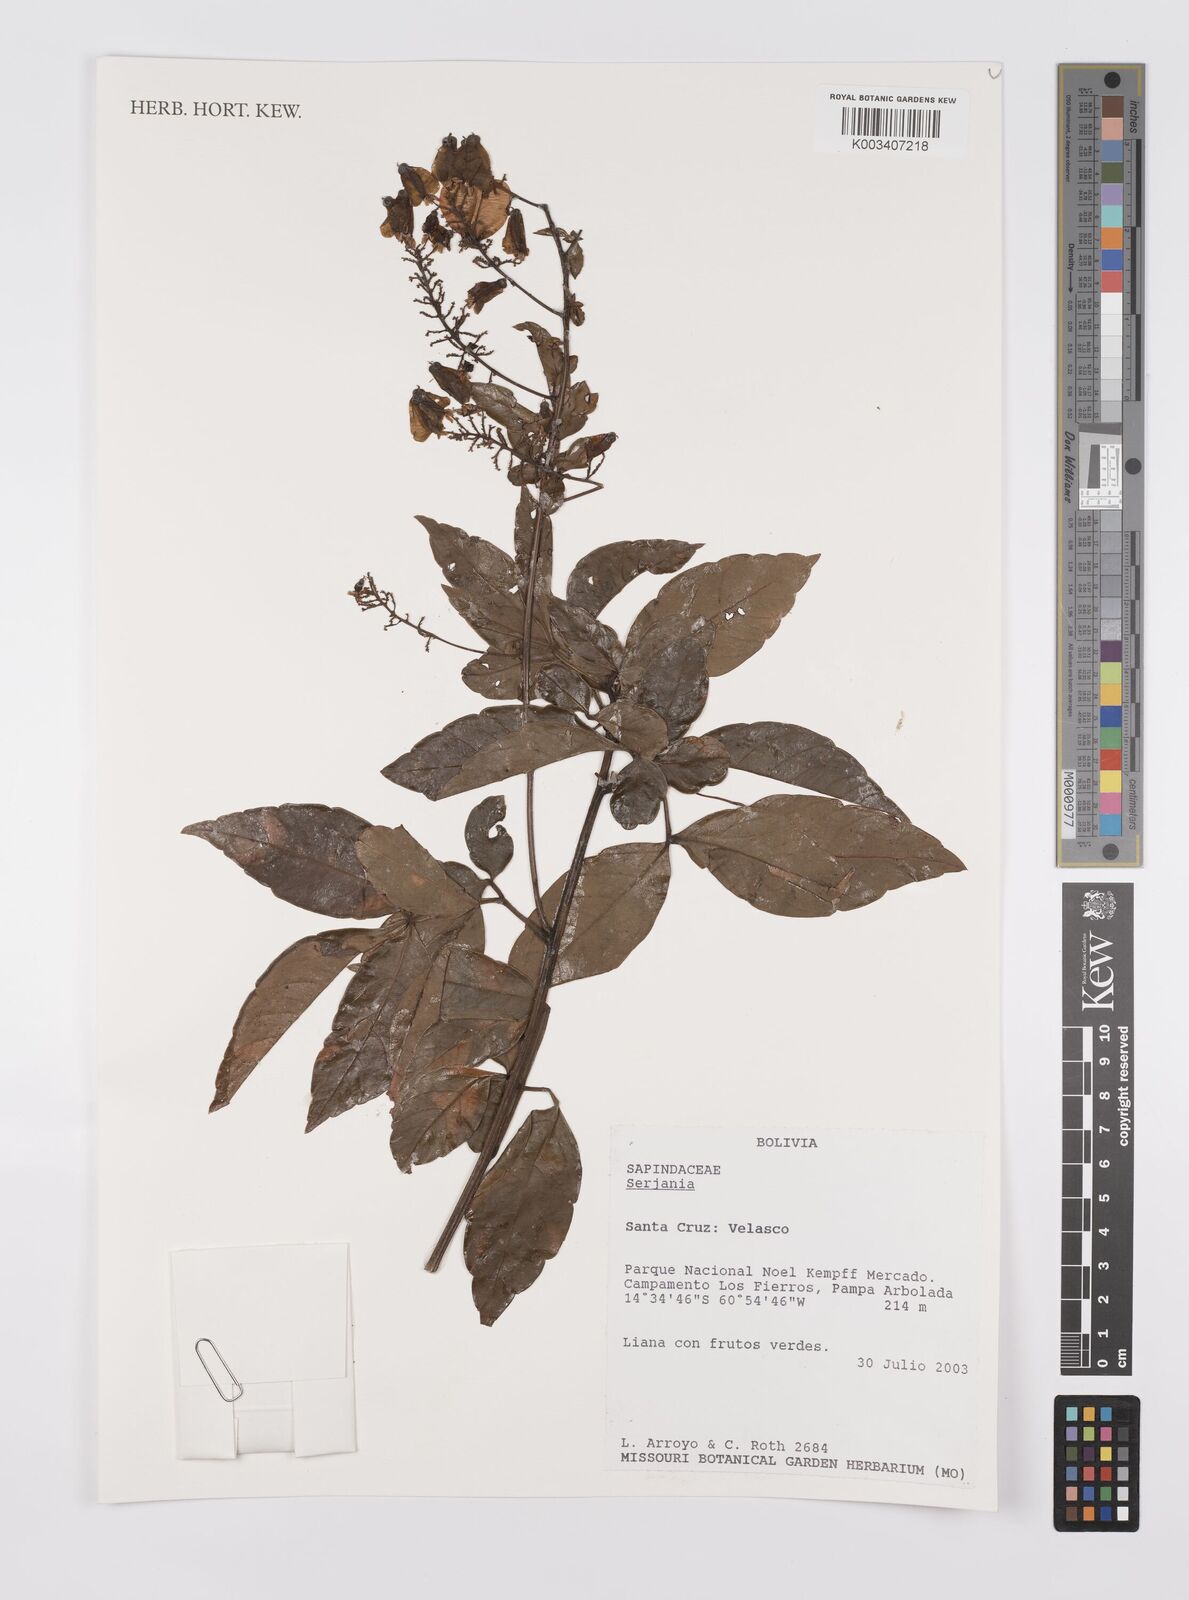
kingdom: Plantae
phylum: Tracheophyta
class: Magnoliopsida
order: Sapindales
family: Sapindaceae
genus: Serjania
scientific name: Serjania
